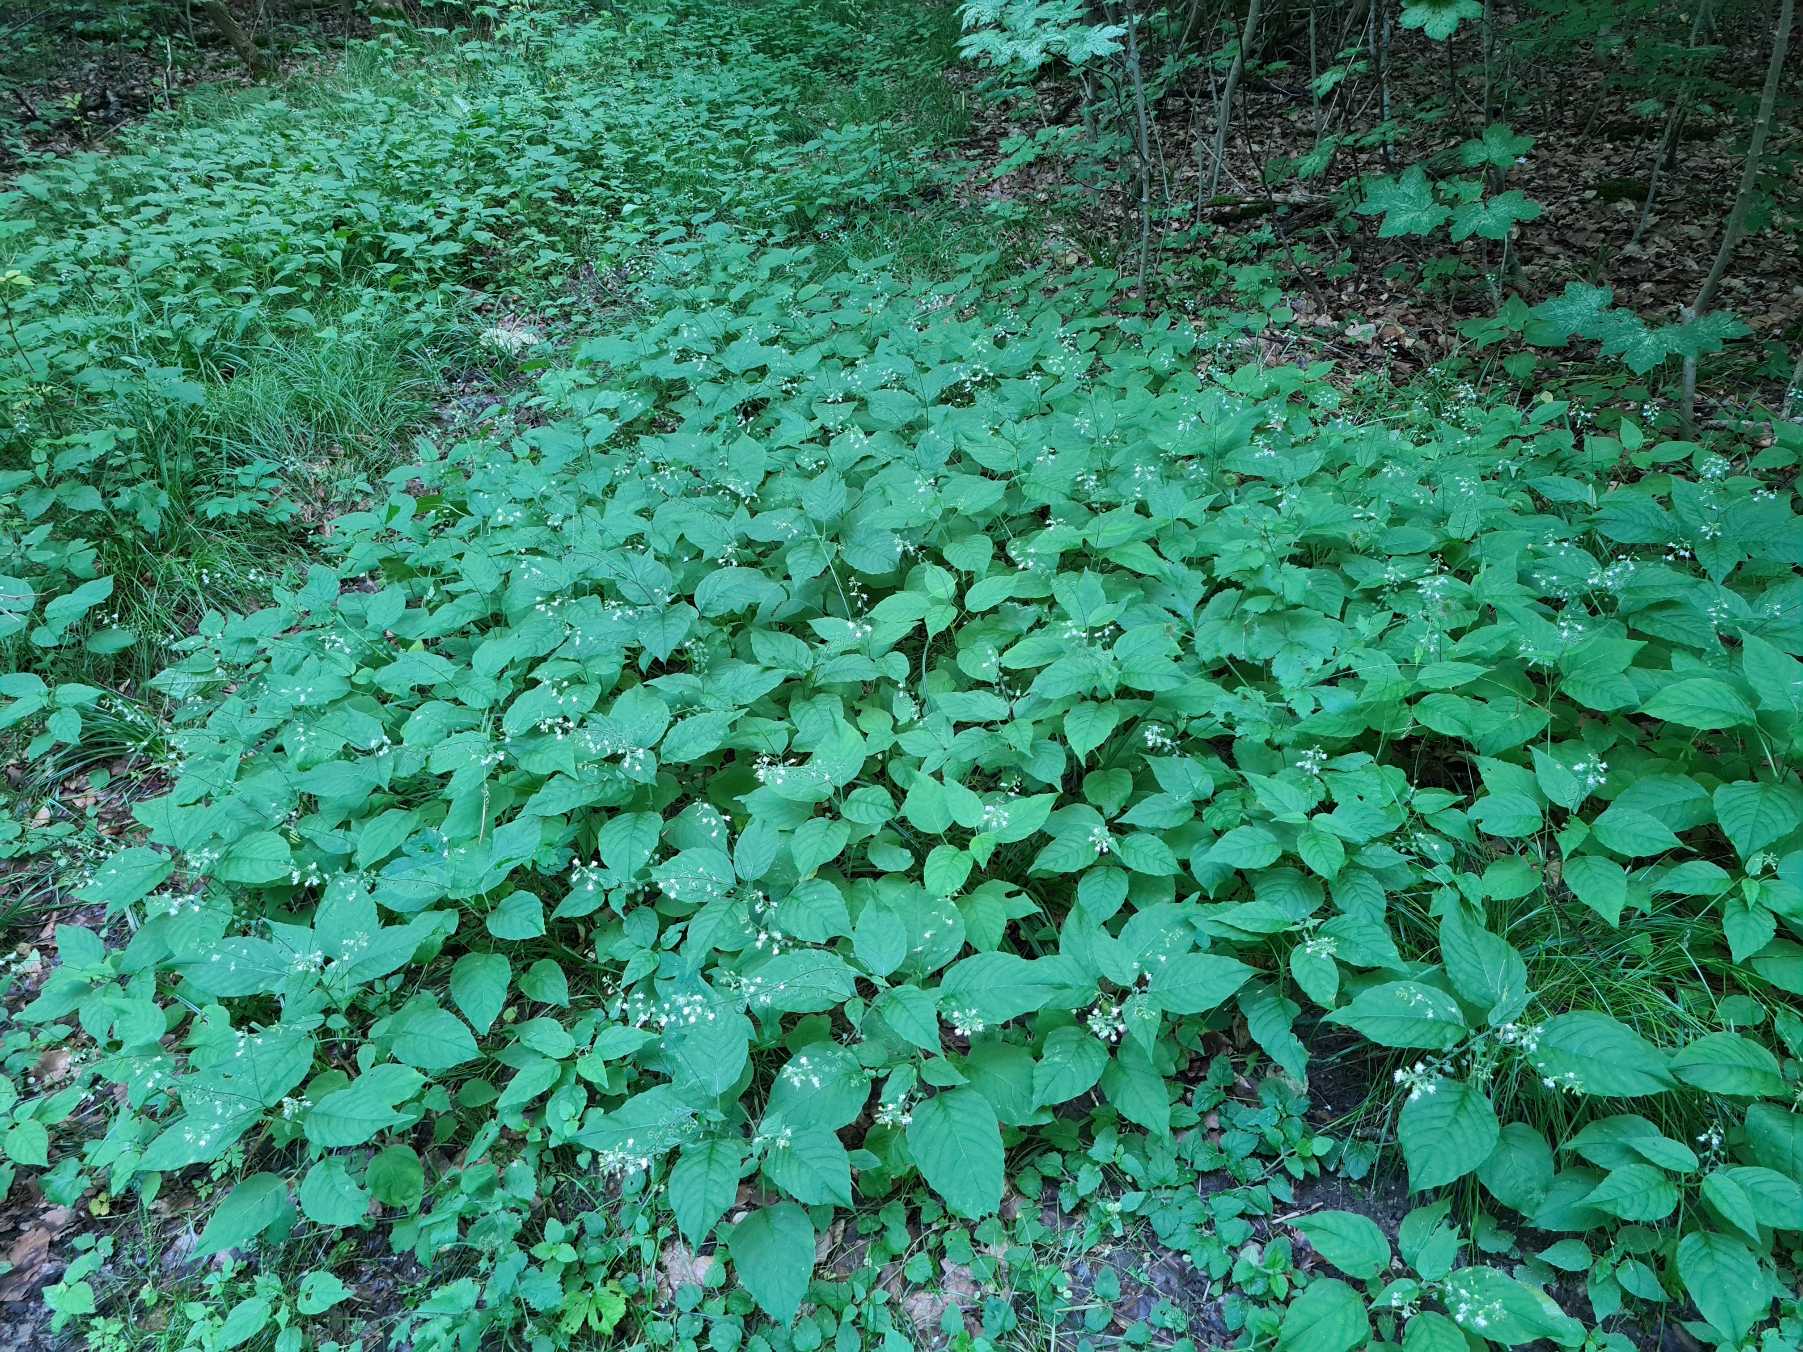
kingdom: Plantae
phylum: Tracheophyta
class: Magnoliopsida
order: Myrtales
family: Onagraceae
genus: Circaea
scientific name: Circaea lutetiana
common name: Dunet steffensurt
